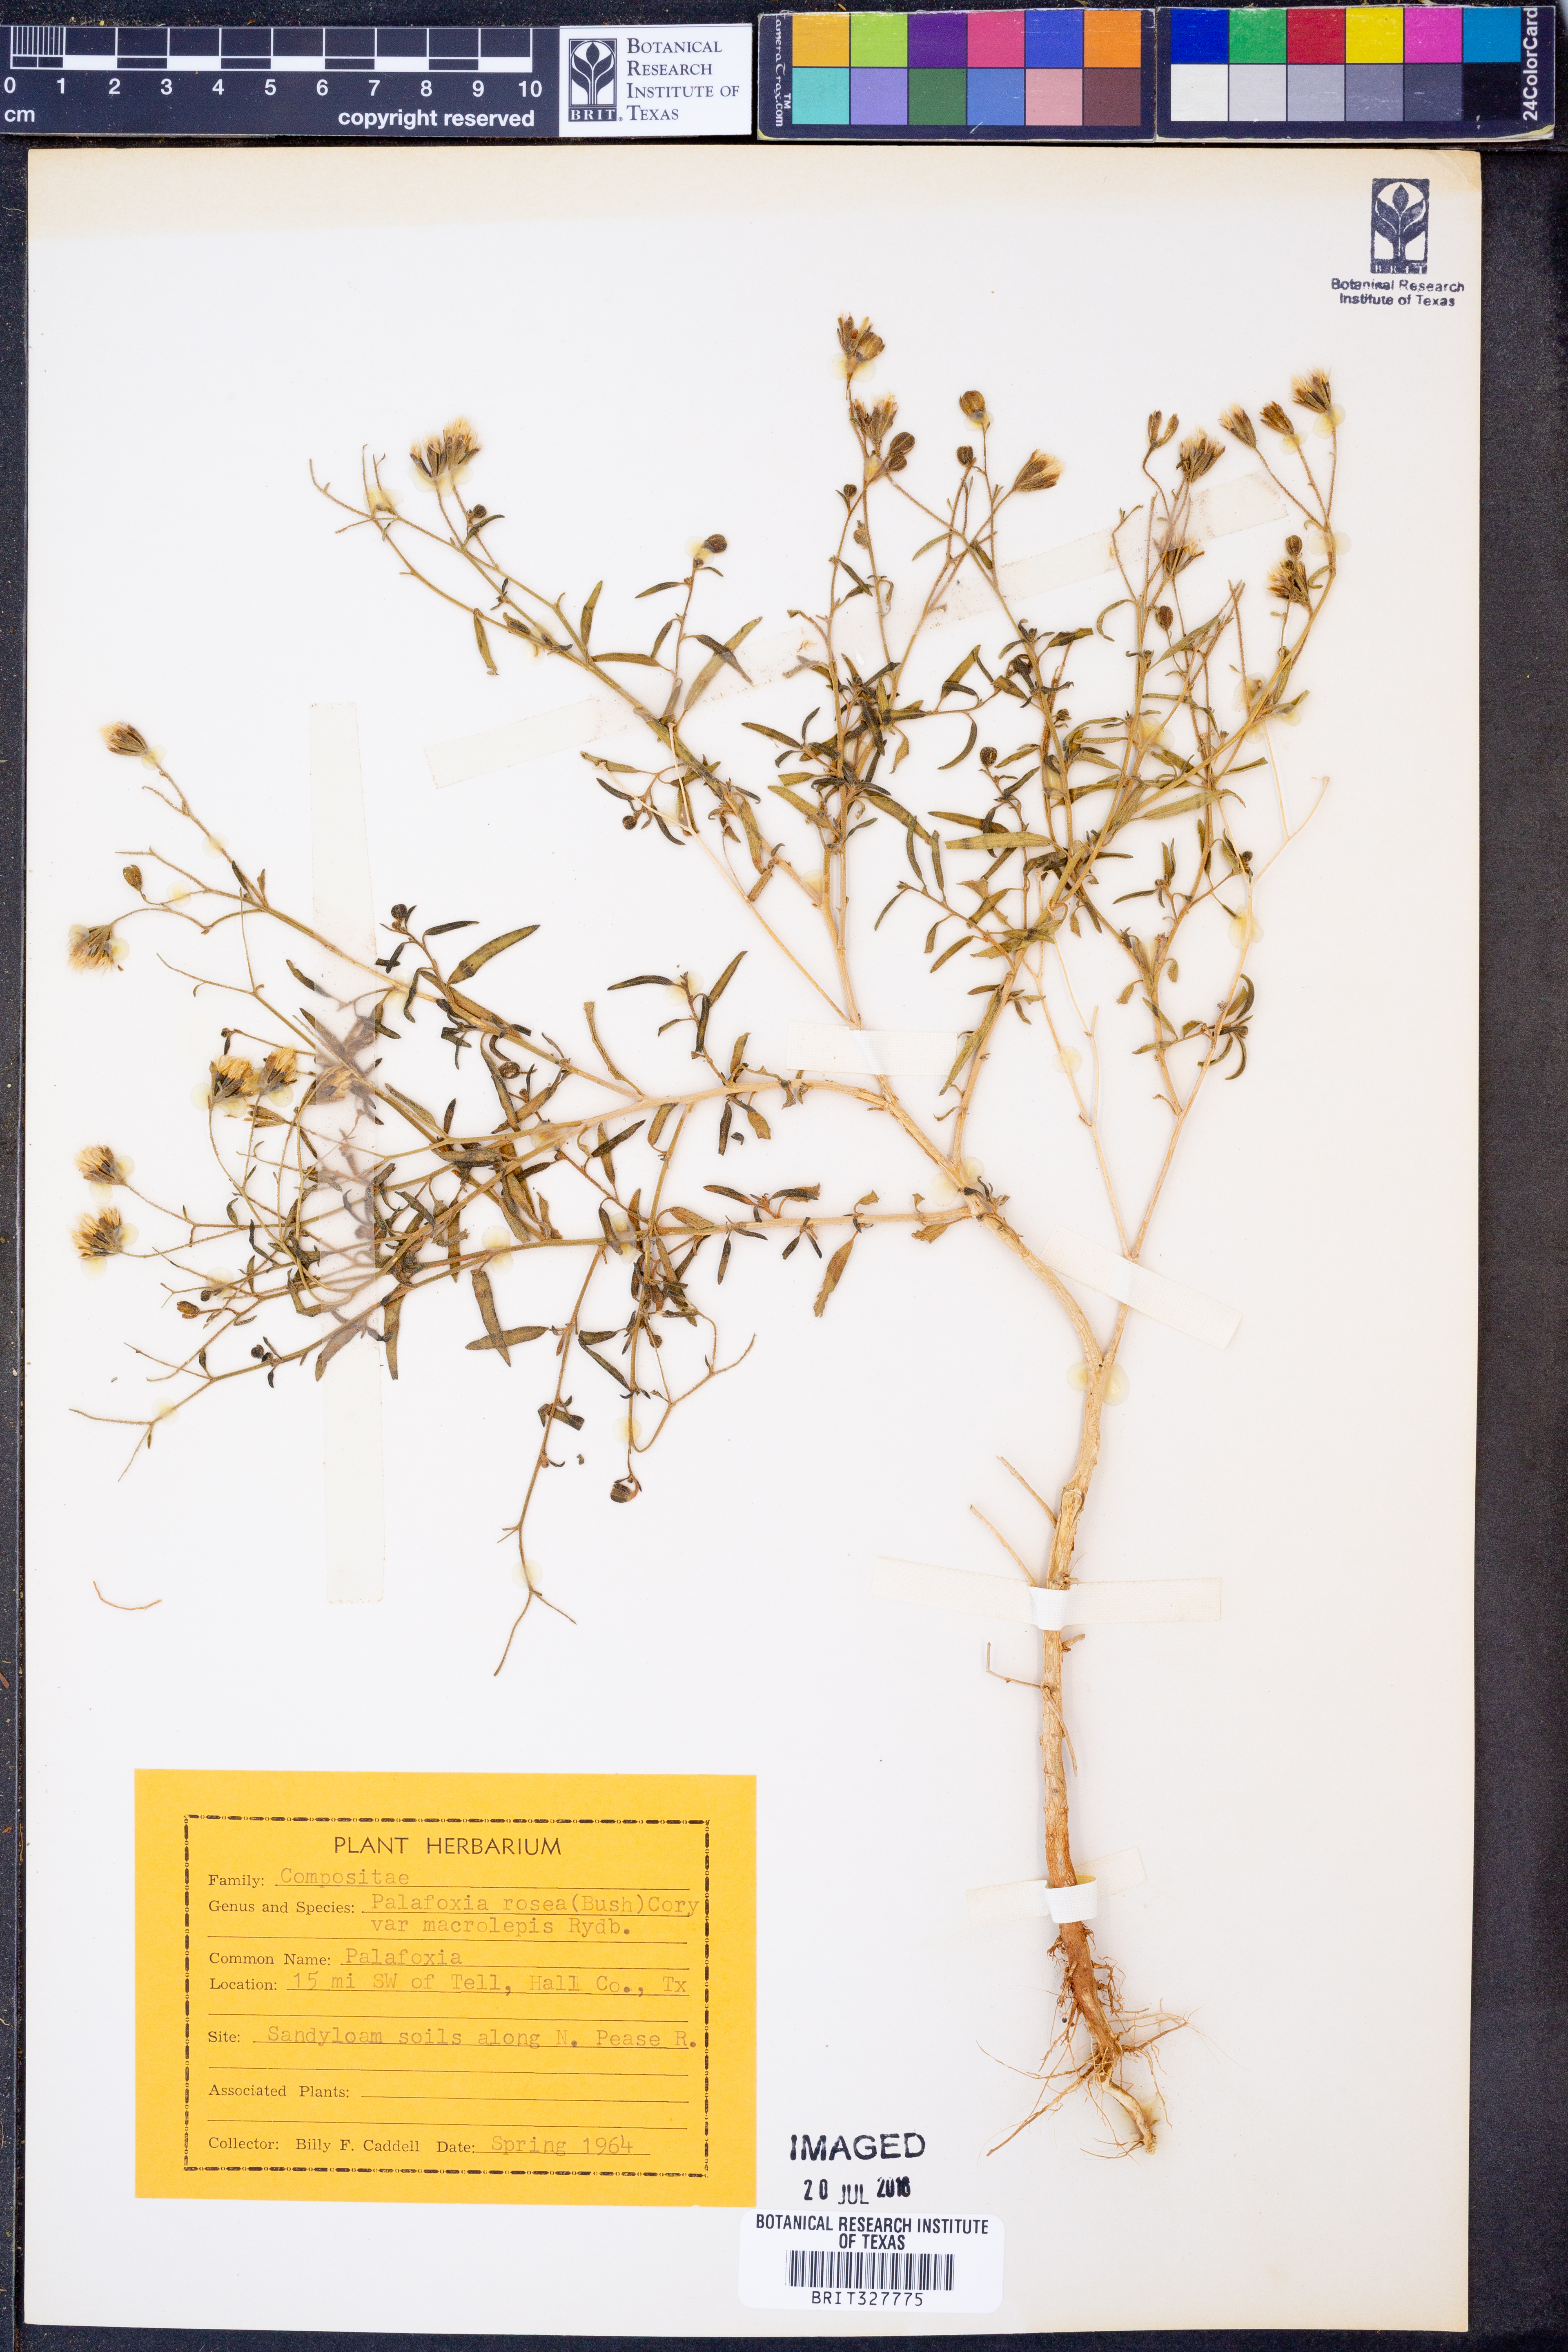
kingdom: Plantae
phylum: Tracheophyta
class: Magnoliopsida
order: Asterales
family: Asteraceae
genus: Palafoxia
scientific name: Palafoxia rosea
